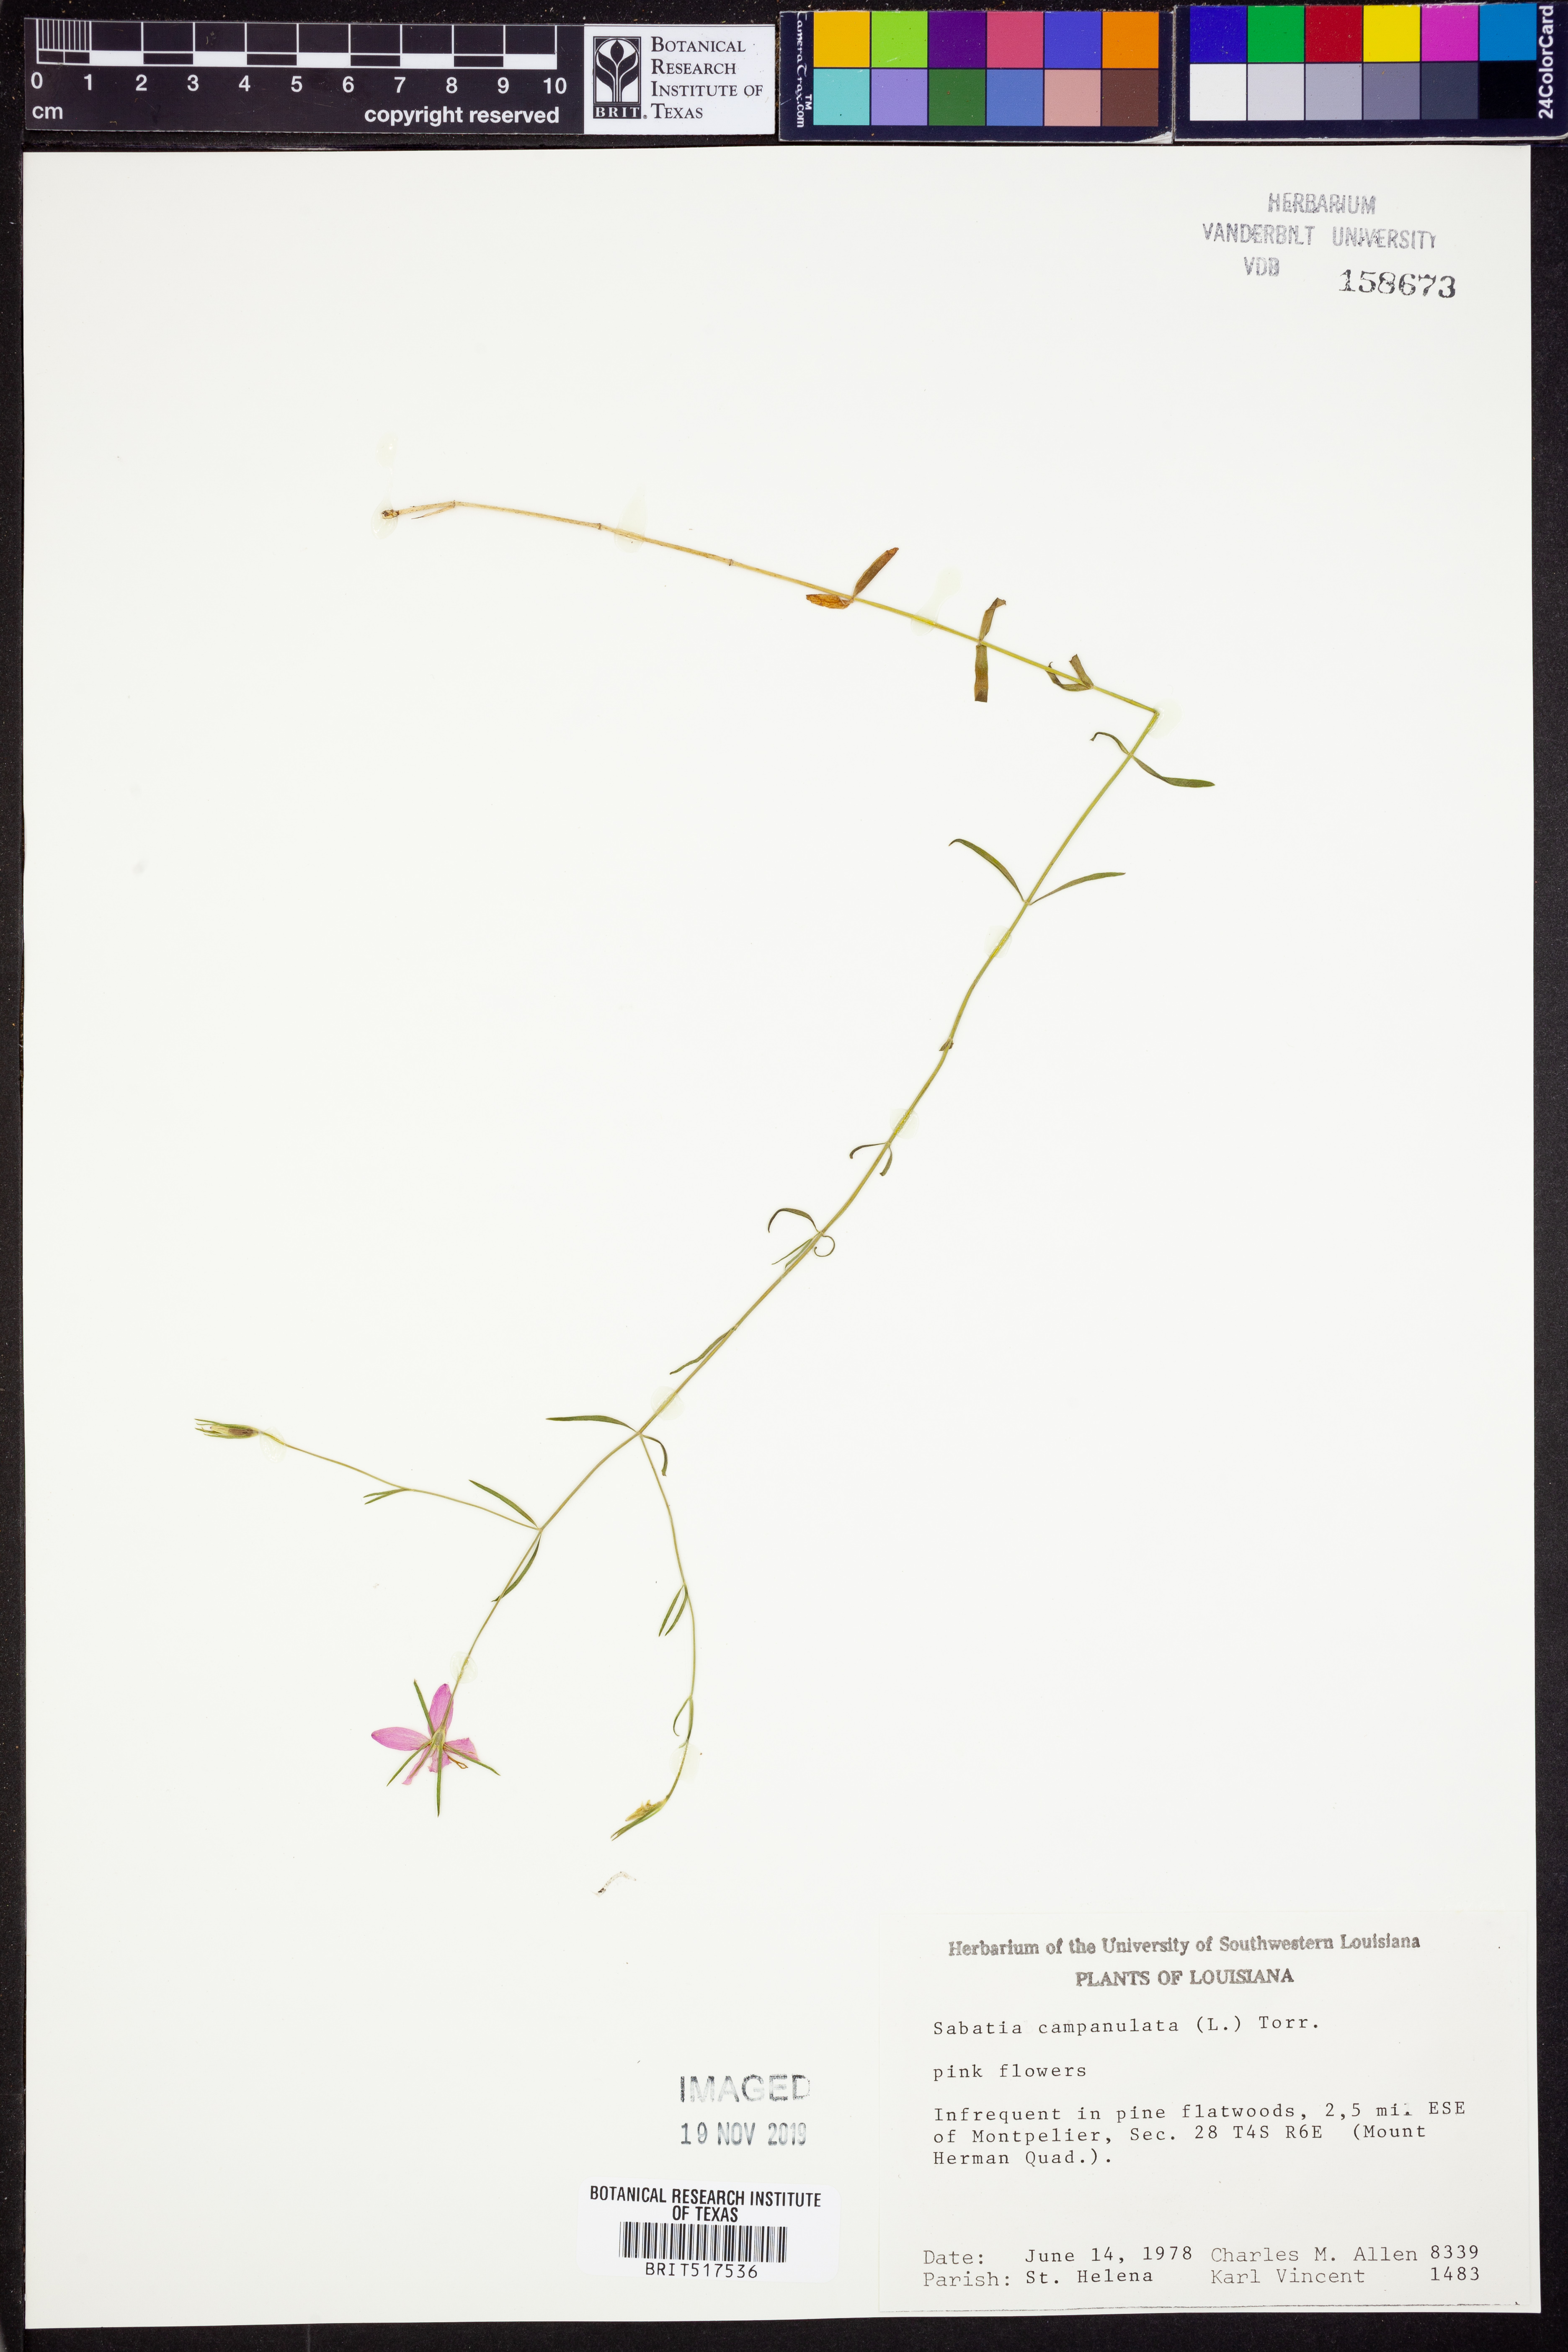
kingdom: Plantae
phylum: Tracheophyta
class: Magnoliopsida
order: Gentianales
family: Gentianaceae
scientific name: Gentianaceae
